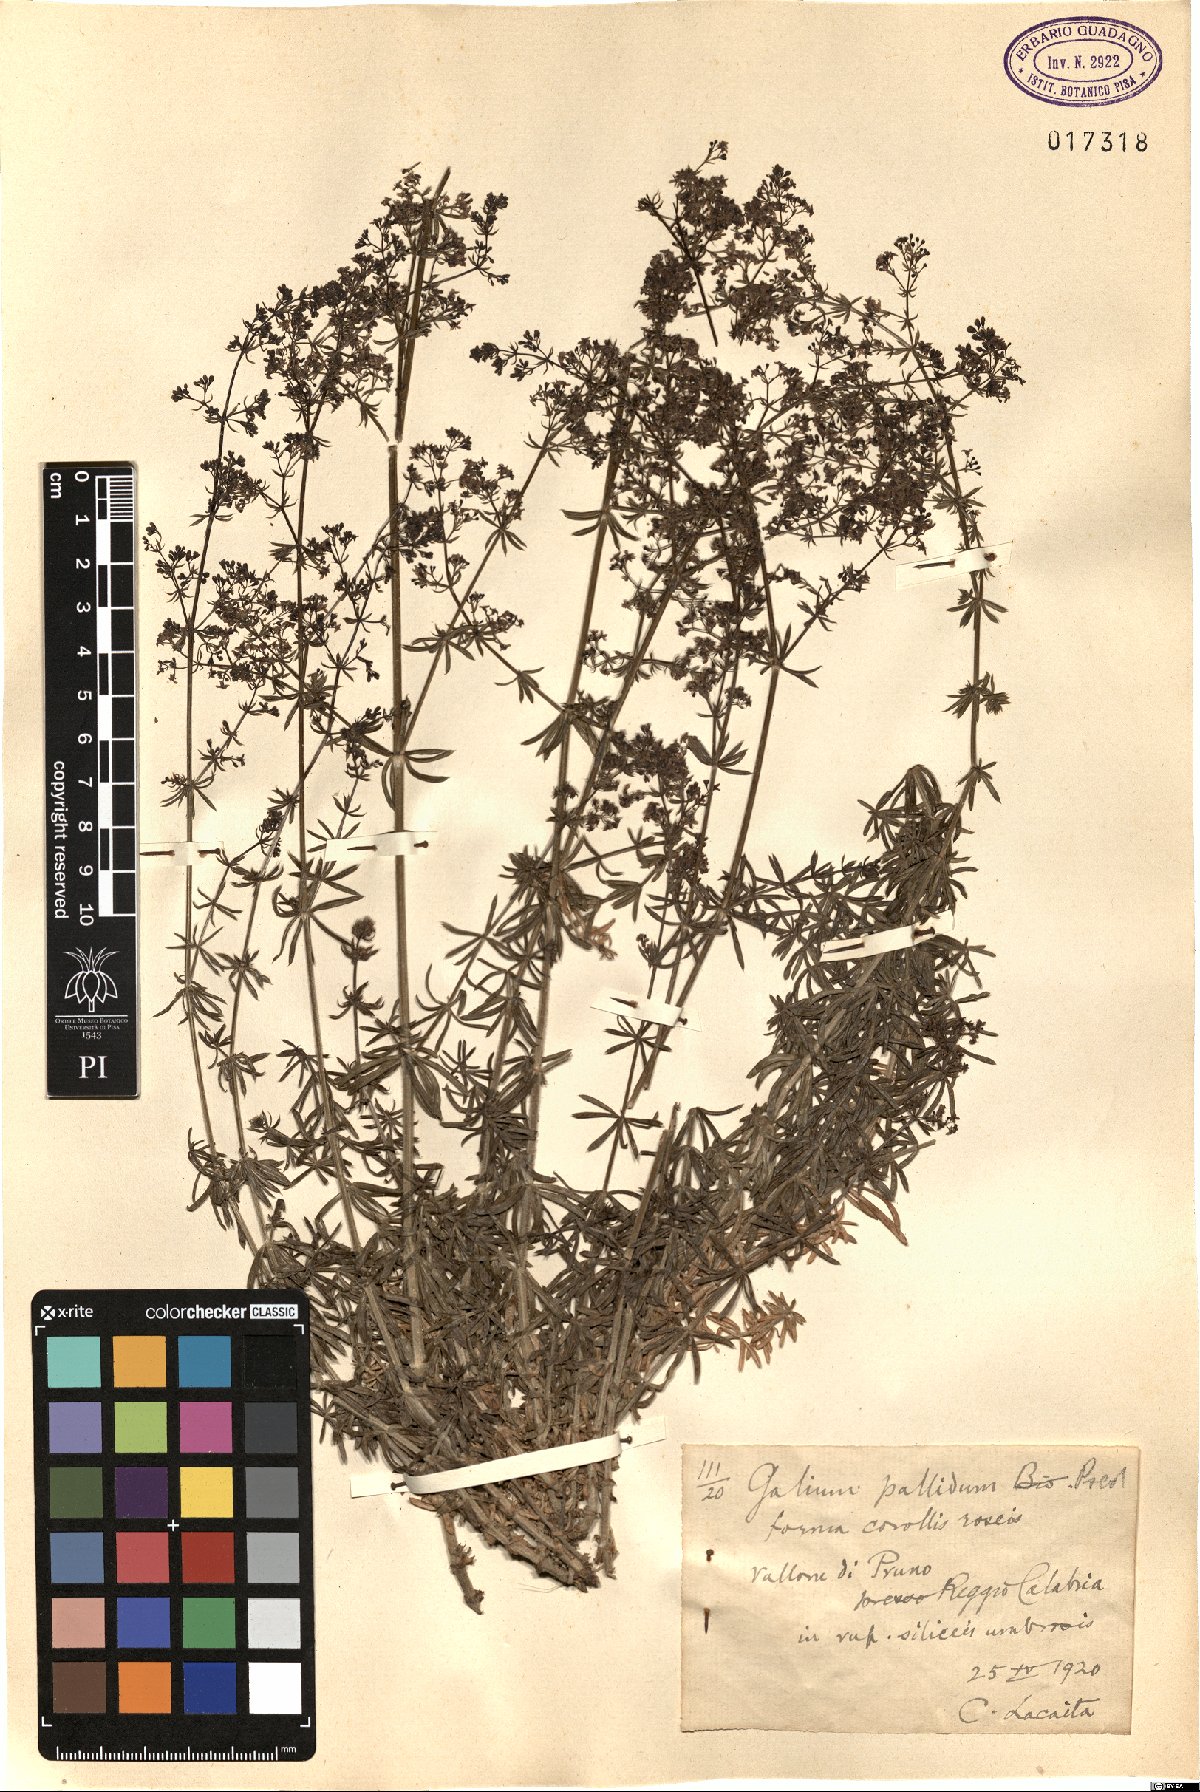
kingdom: Plantae
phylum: Tracheophyta
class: Magnoliopsida
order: Gentianales
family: Rubiaceae
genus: Galium
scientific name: Galium cinereum
